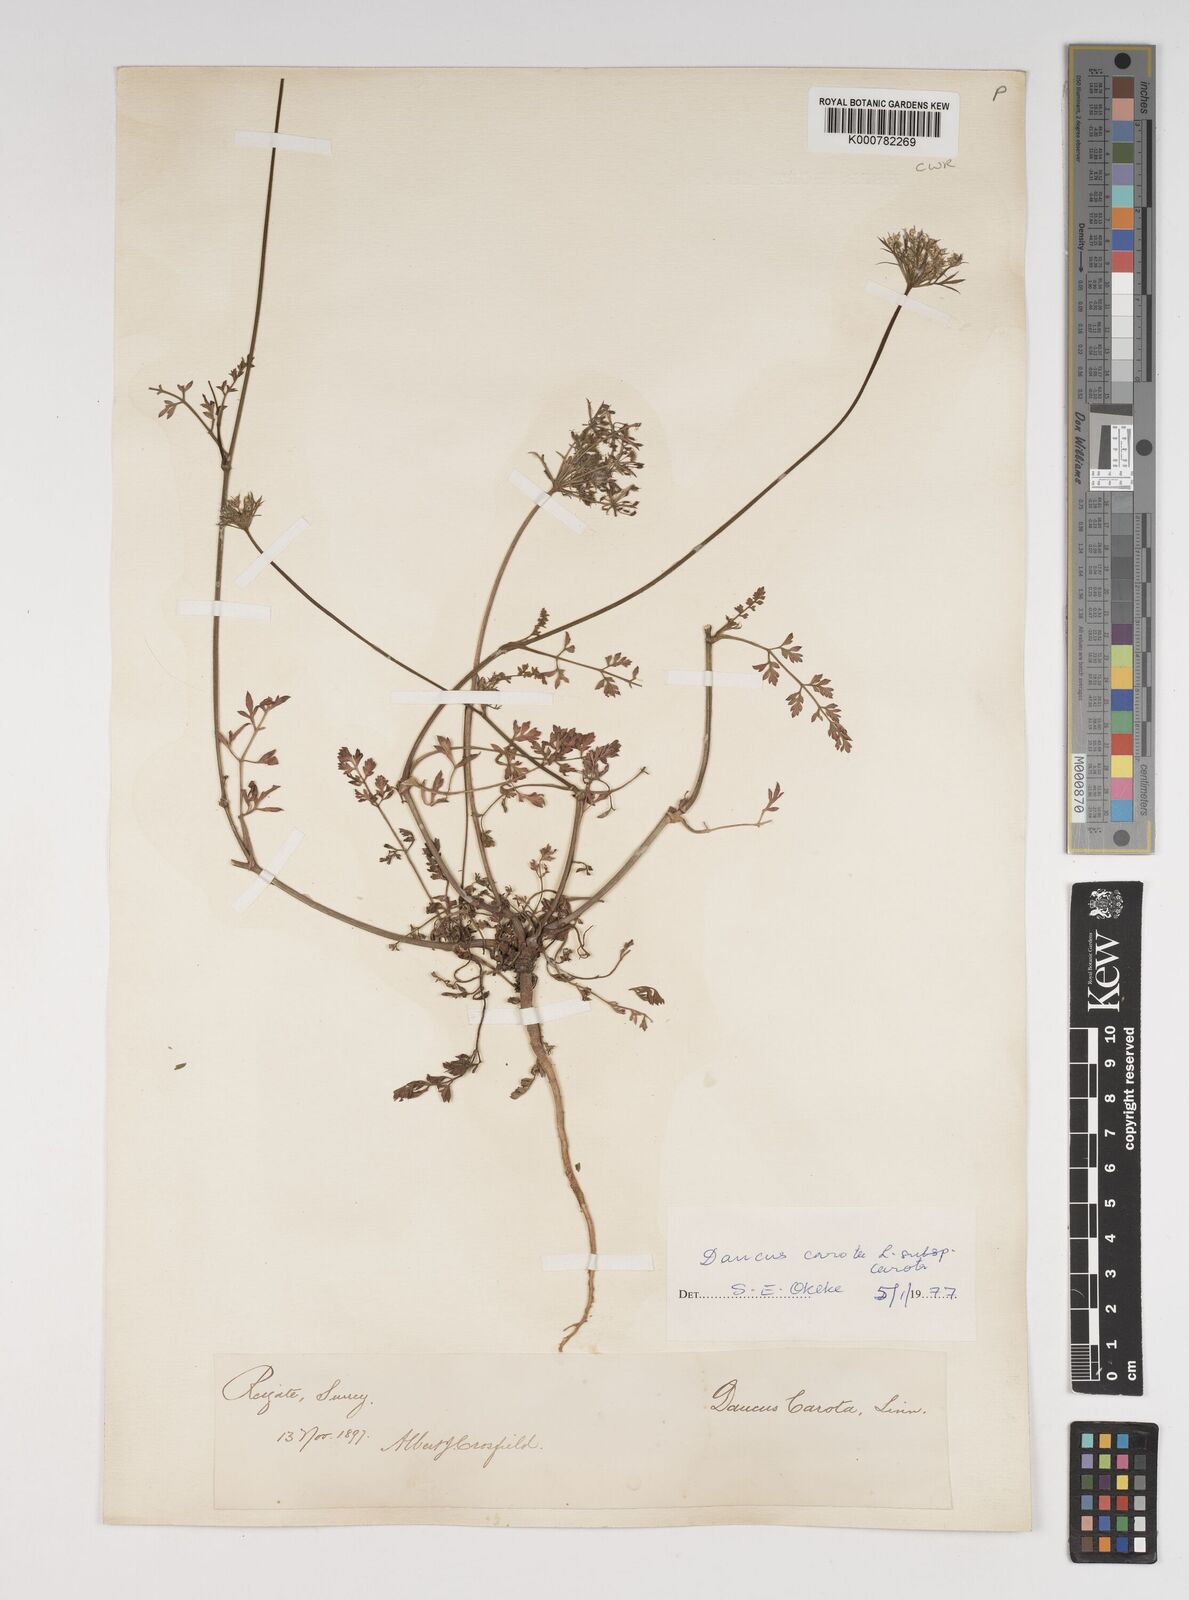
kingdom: Plantae
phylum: Tracheophyta
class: Magnoliopsida
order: Apiales
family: Apiaceae
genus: Daucus
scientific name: Daucus carota
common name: Wild carrot
